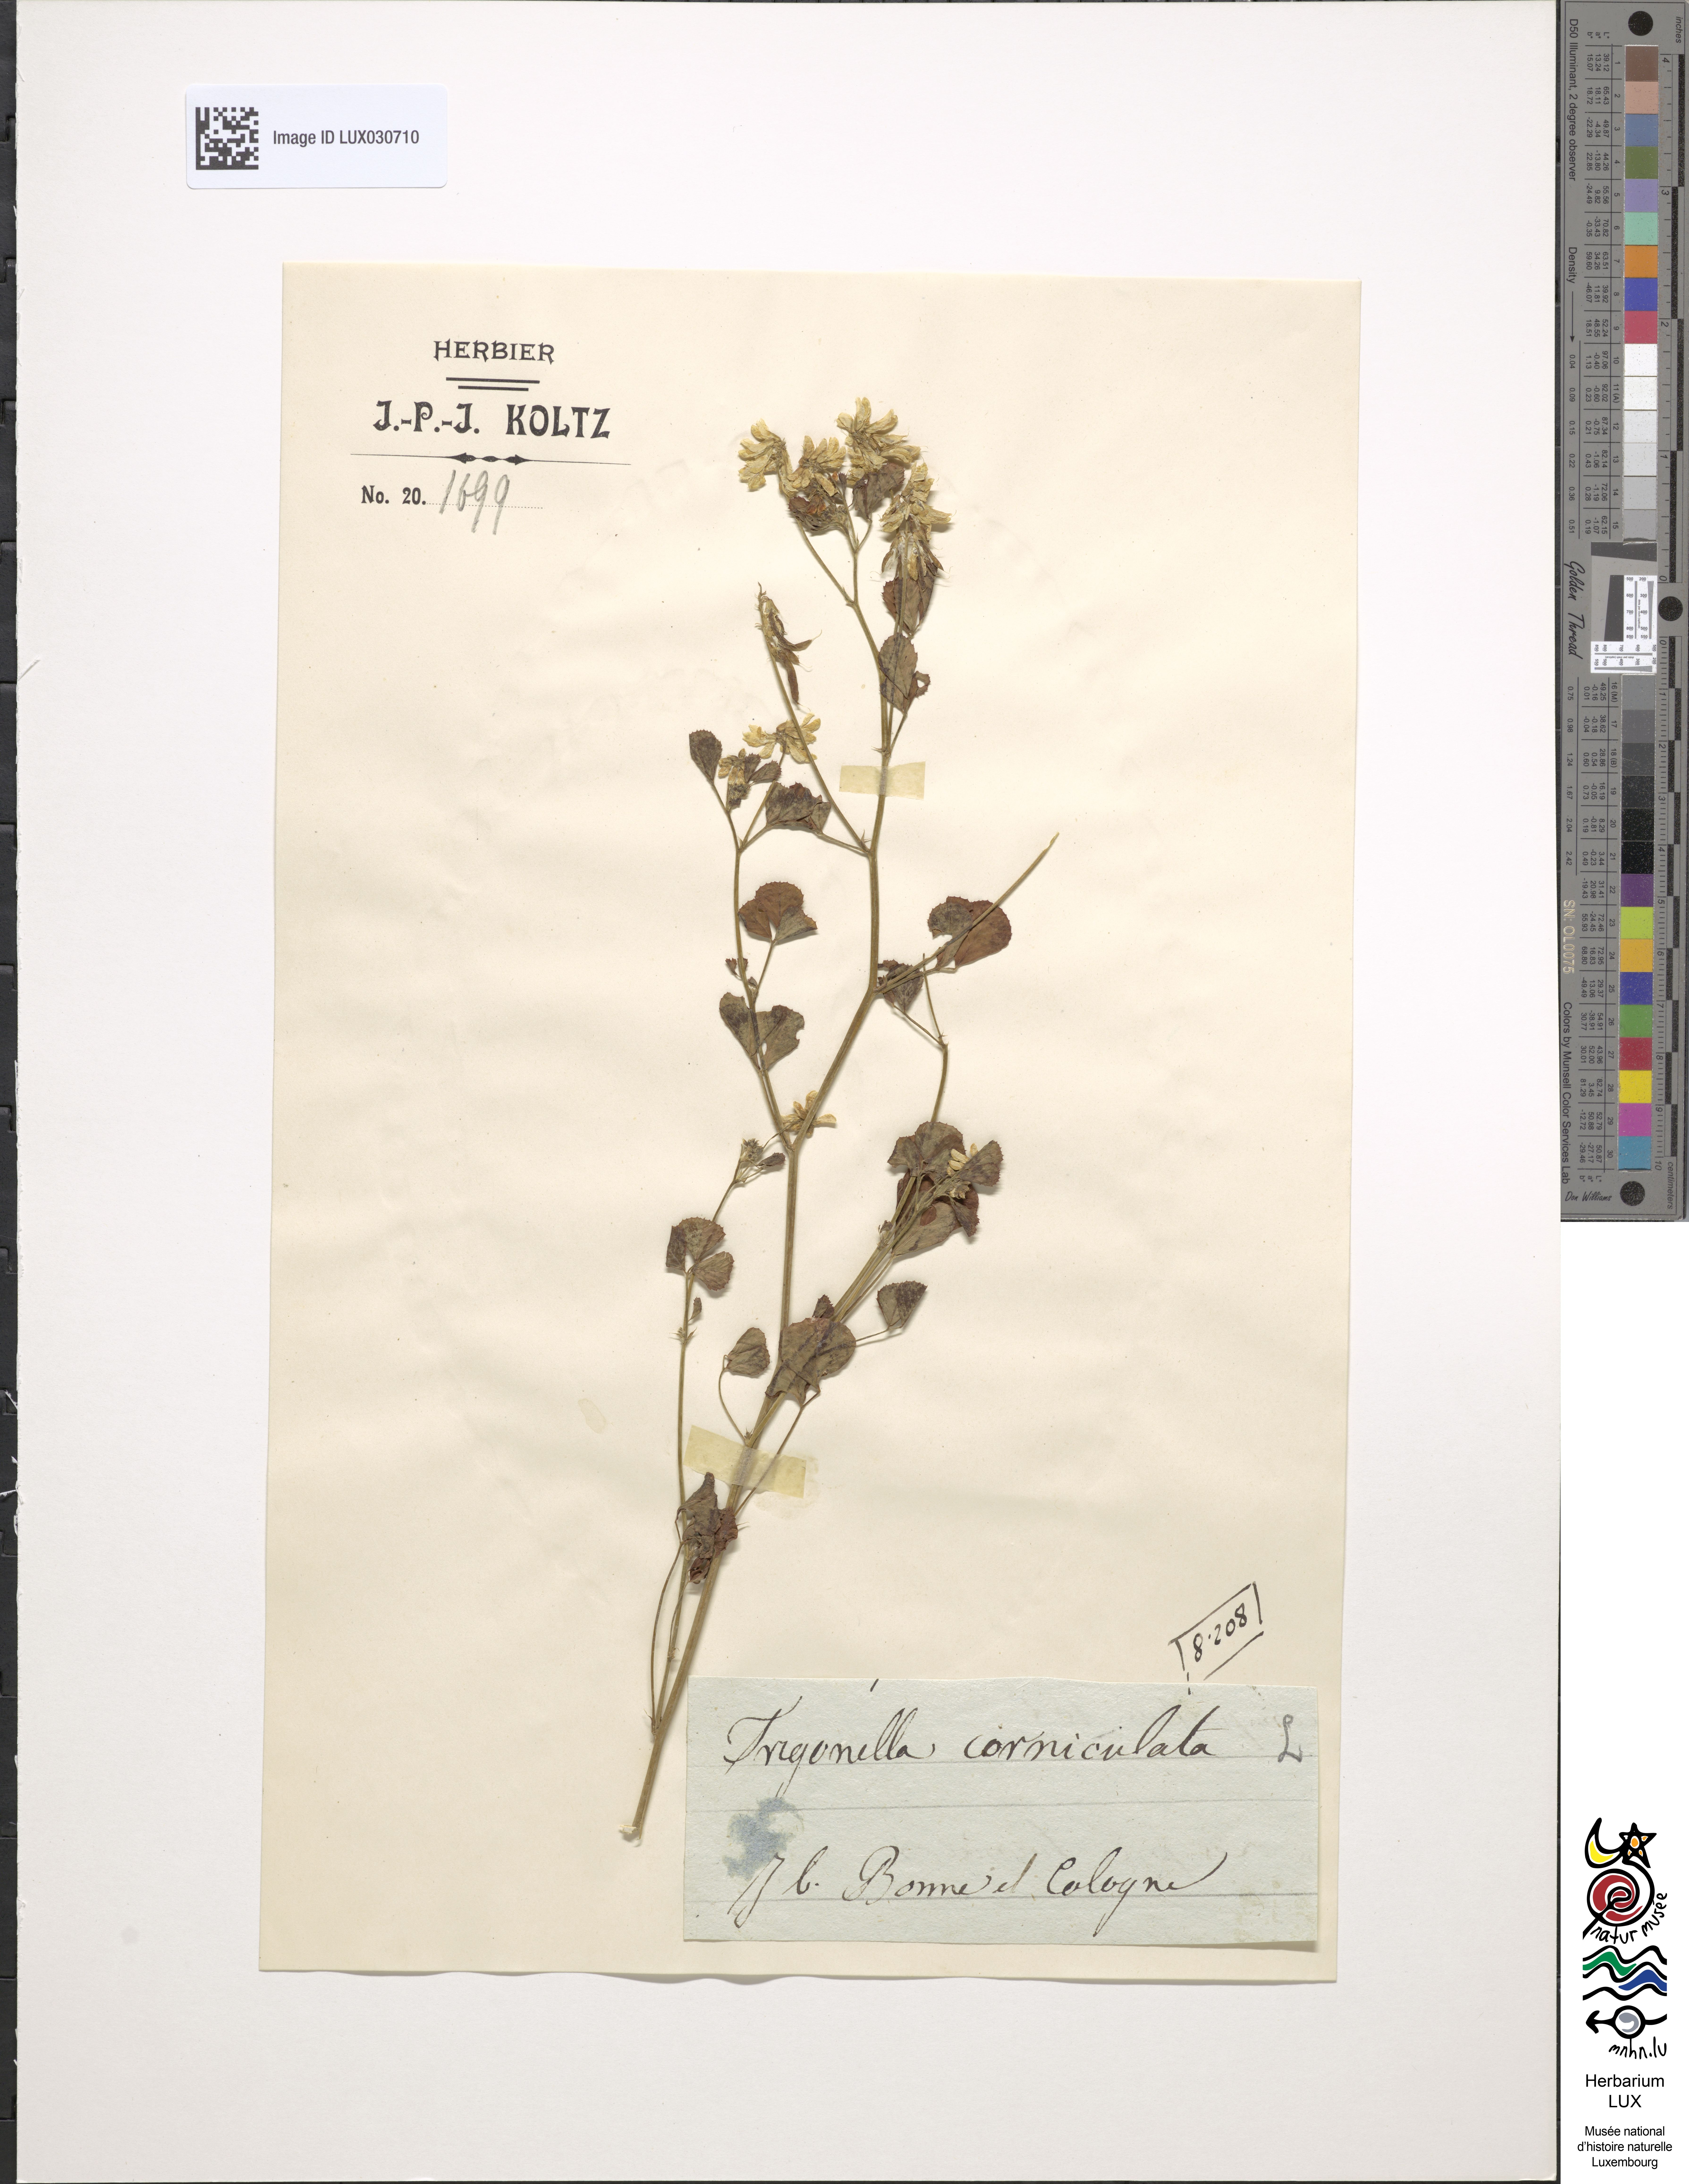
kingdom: Plantae
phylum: Tracheophyta
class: Magnoliopsida
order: Fabales
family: Fabaceae
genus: Trigonella
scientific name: Trigonella balansae
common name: Sickle-fruited fenugreek
